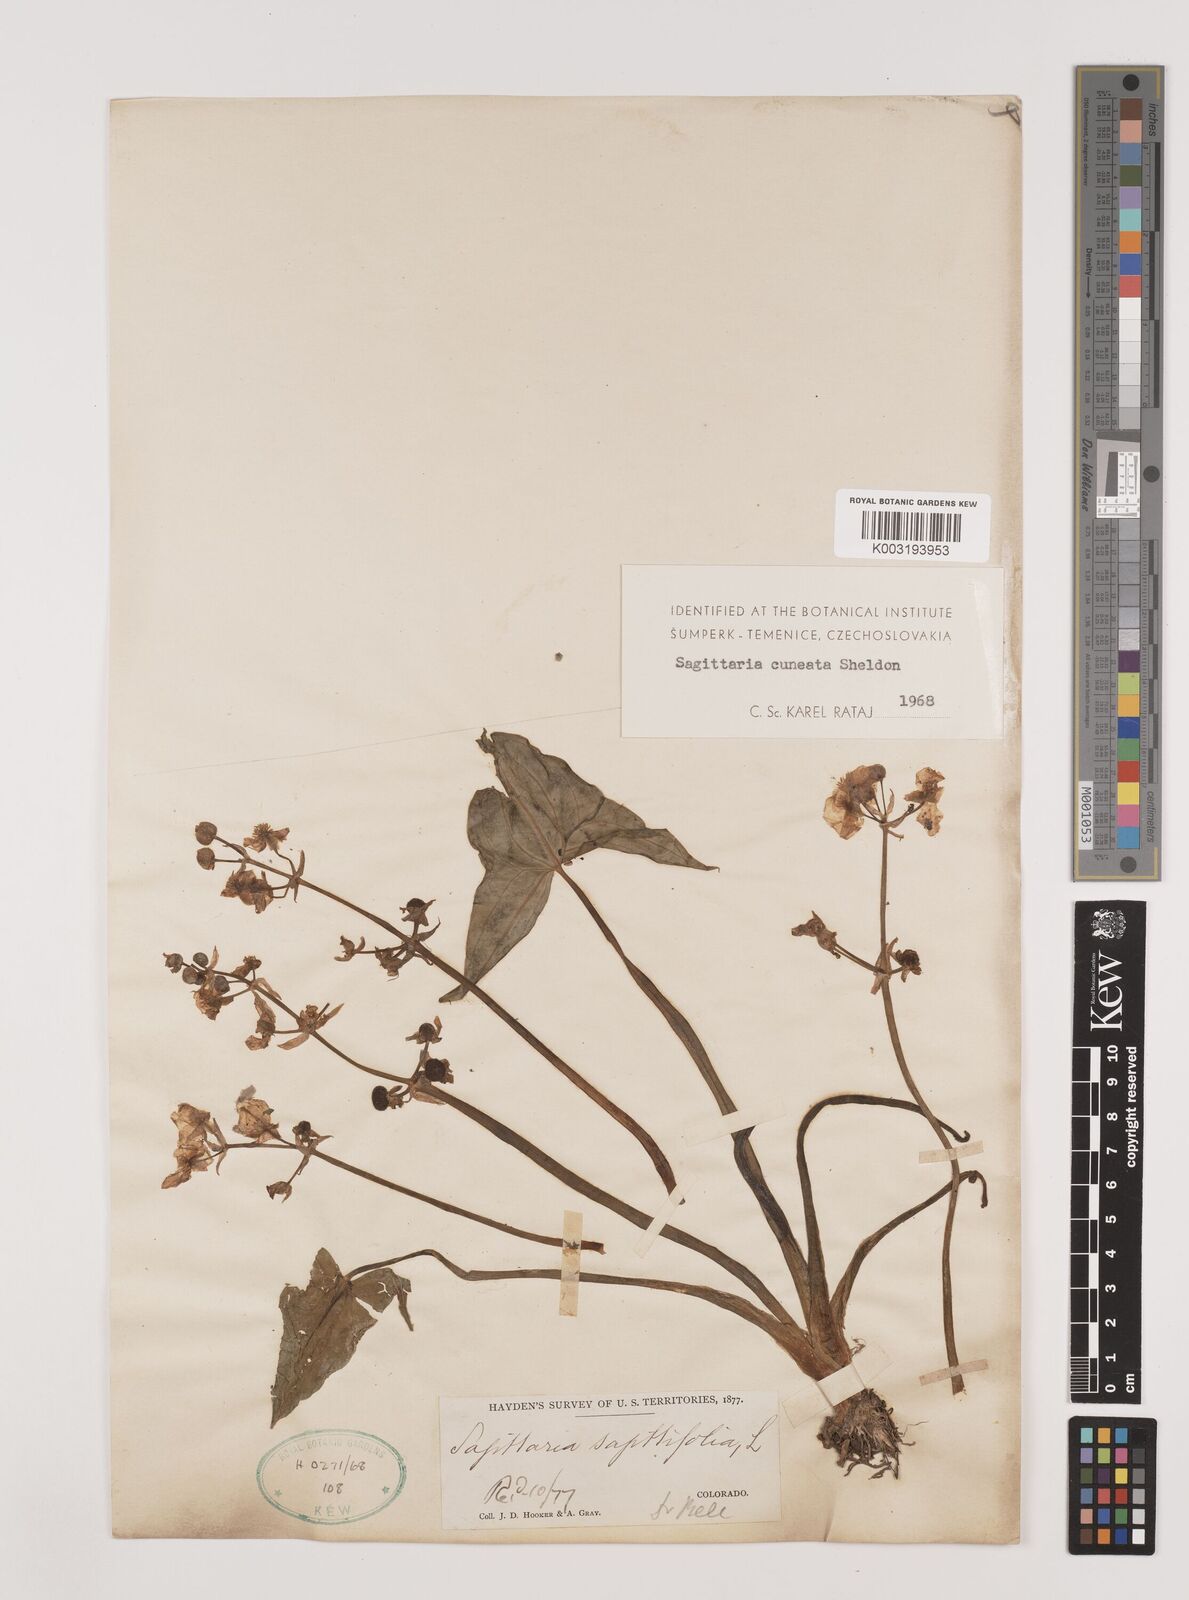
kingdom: Plantae
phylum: Tracheophyta
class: Liliopsida
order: Alismatales
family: Alismataceae
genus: Sagittaria
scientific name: Sagittaria cuneata
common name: Northern arrowhead
